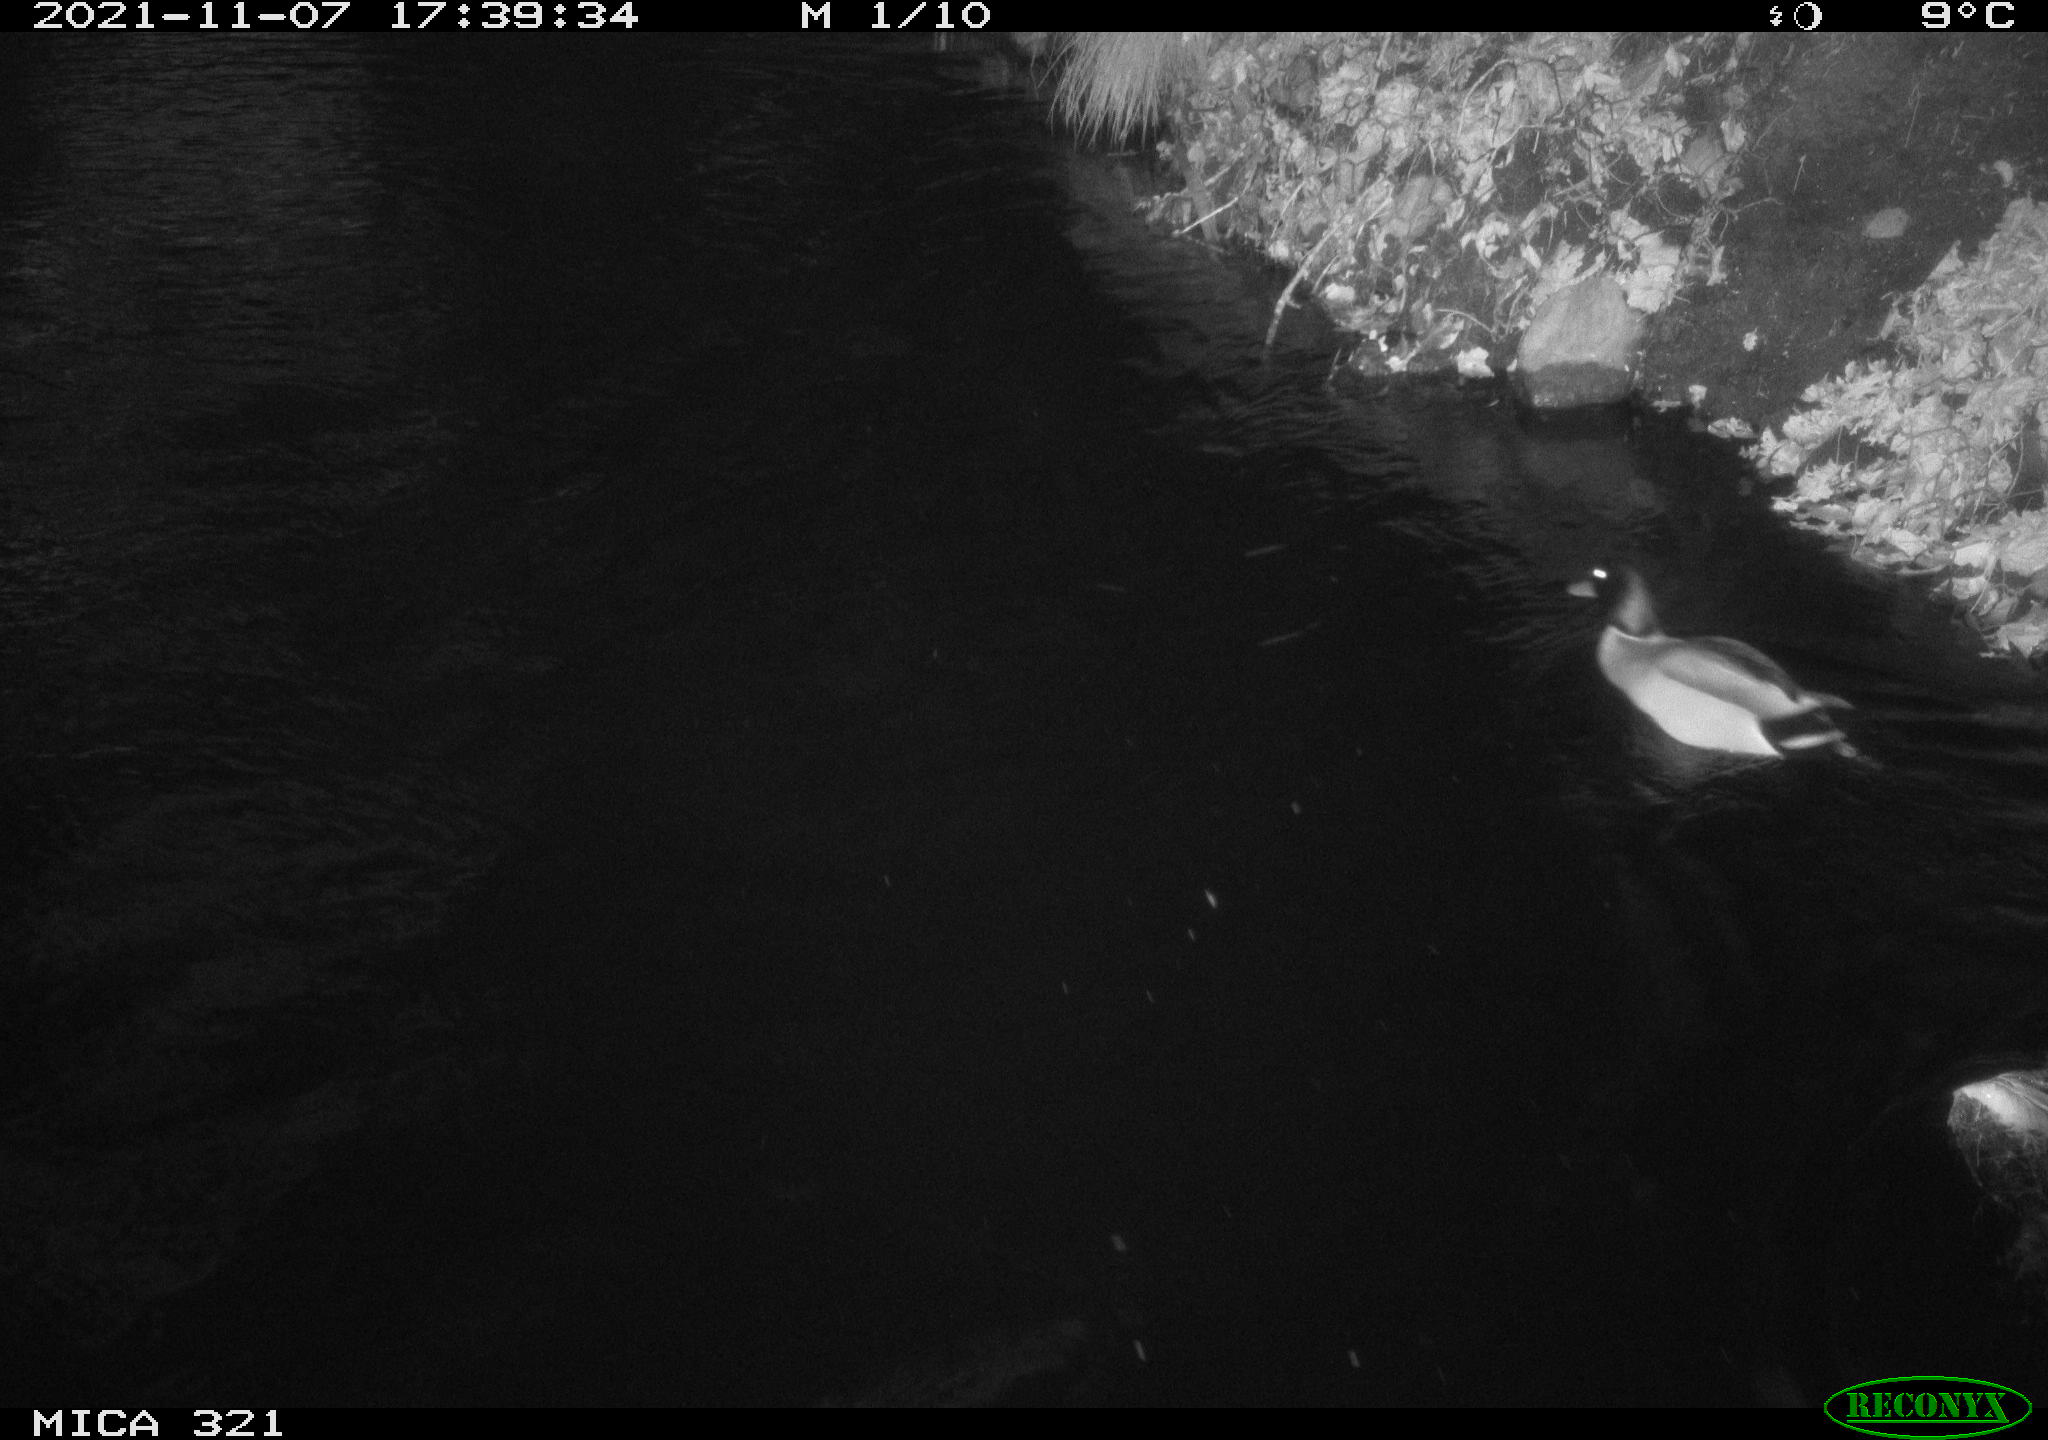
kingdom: Animalia
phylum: Chordata
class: Aves
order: Anseriformes
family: Anatidae
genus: Anas
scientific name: Anas platyrhynchos
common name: Mallard
